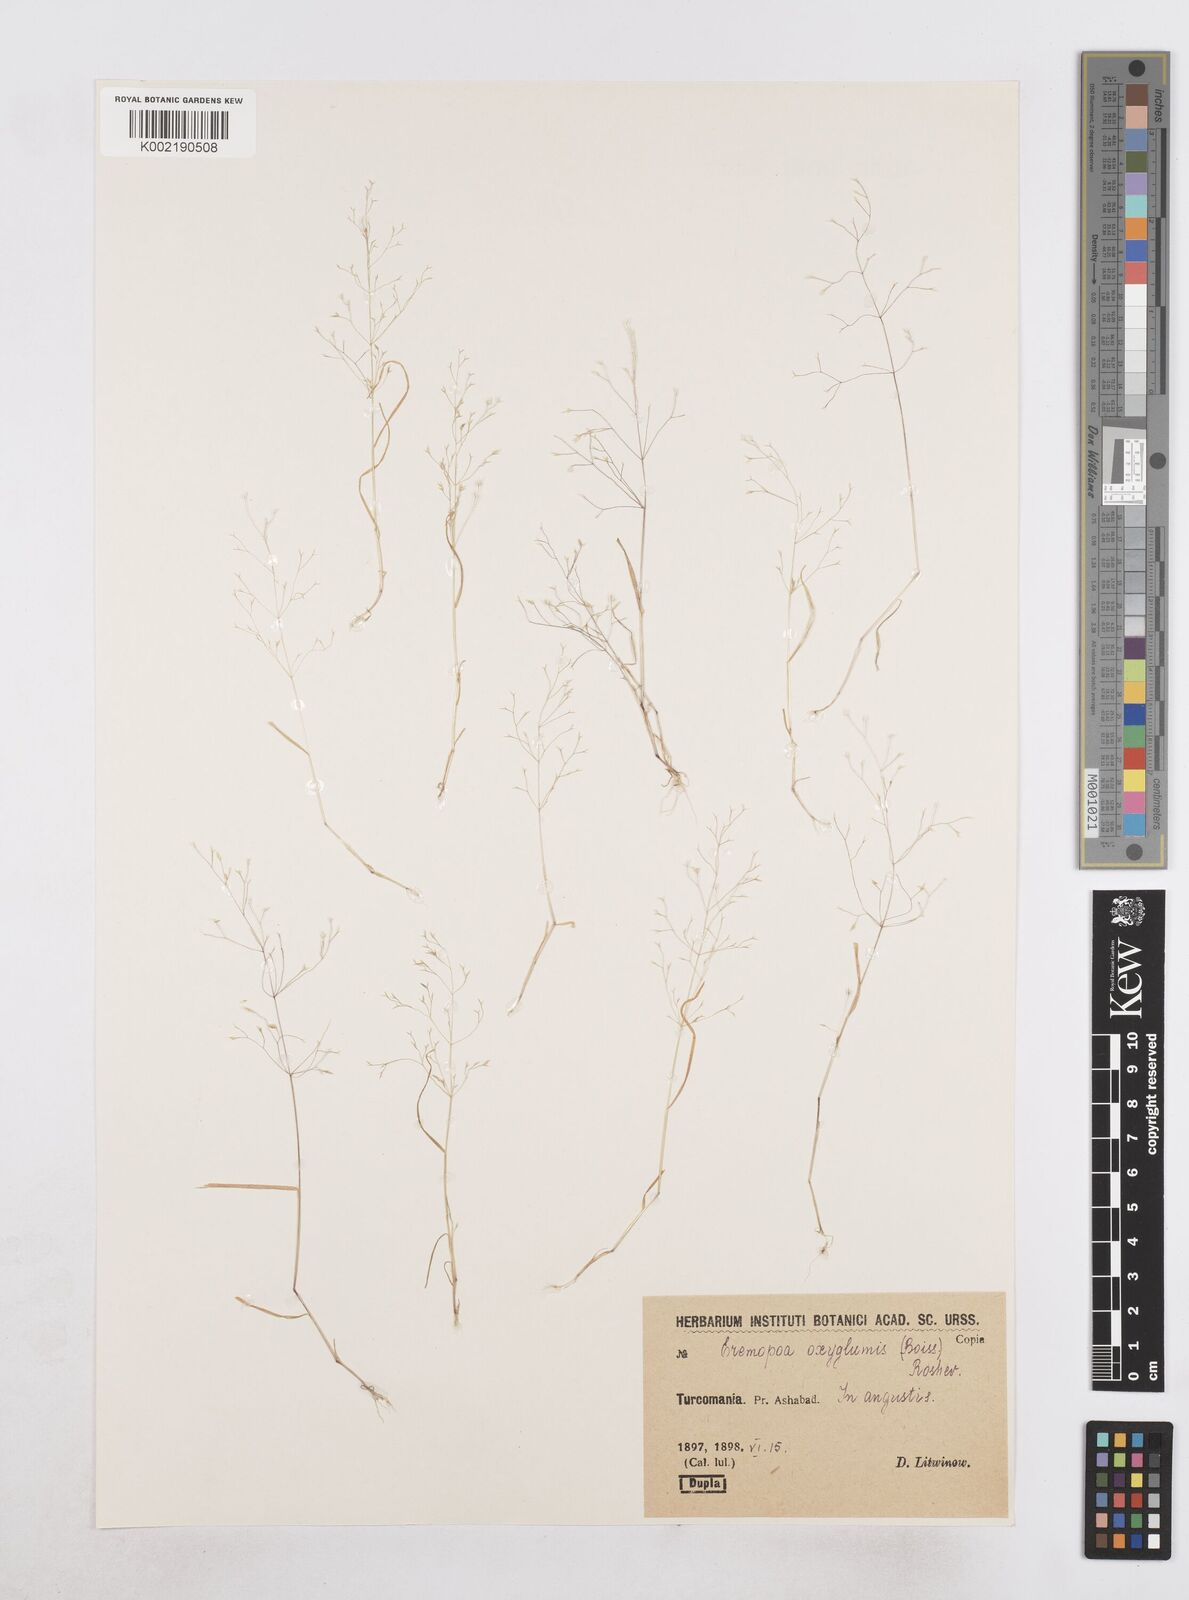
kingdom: Plantae
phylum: Tracheophyta
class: Liliopsida
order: Poales
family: Poaceae
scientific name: Poaceae
